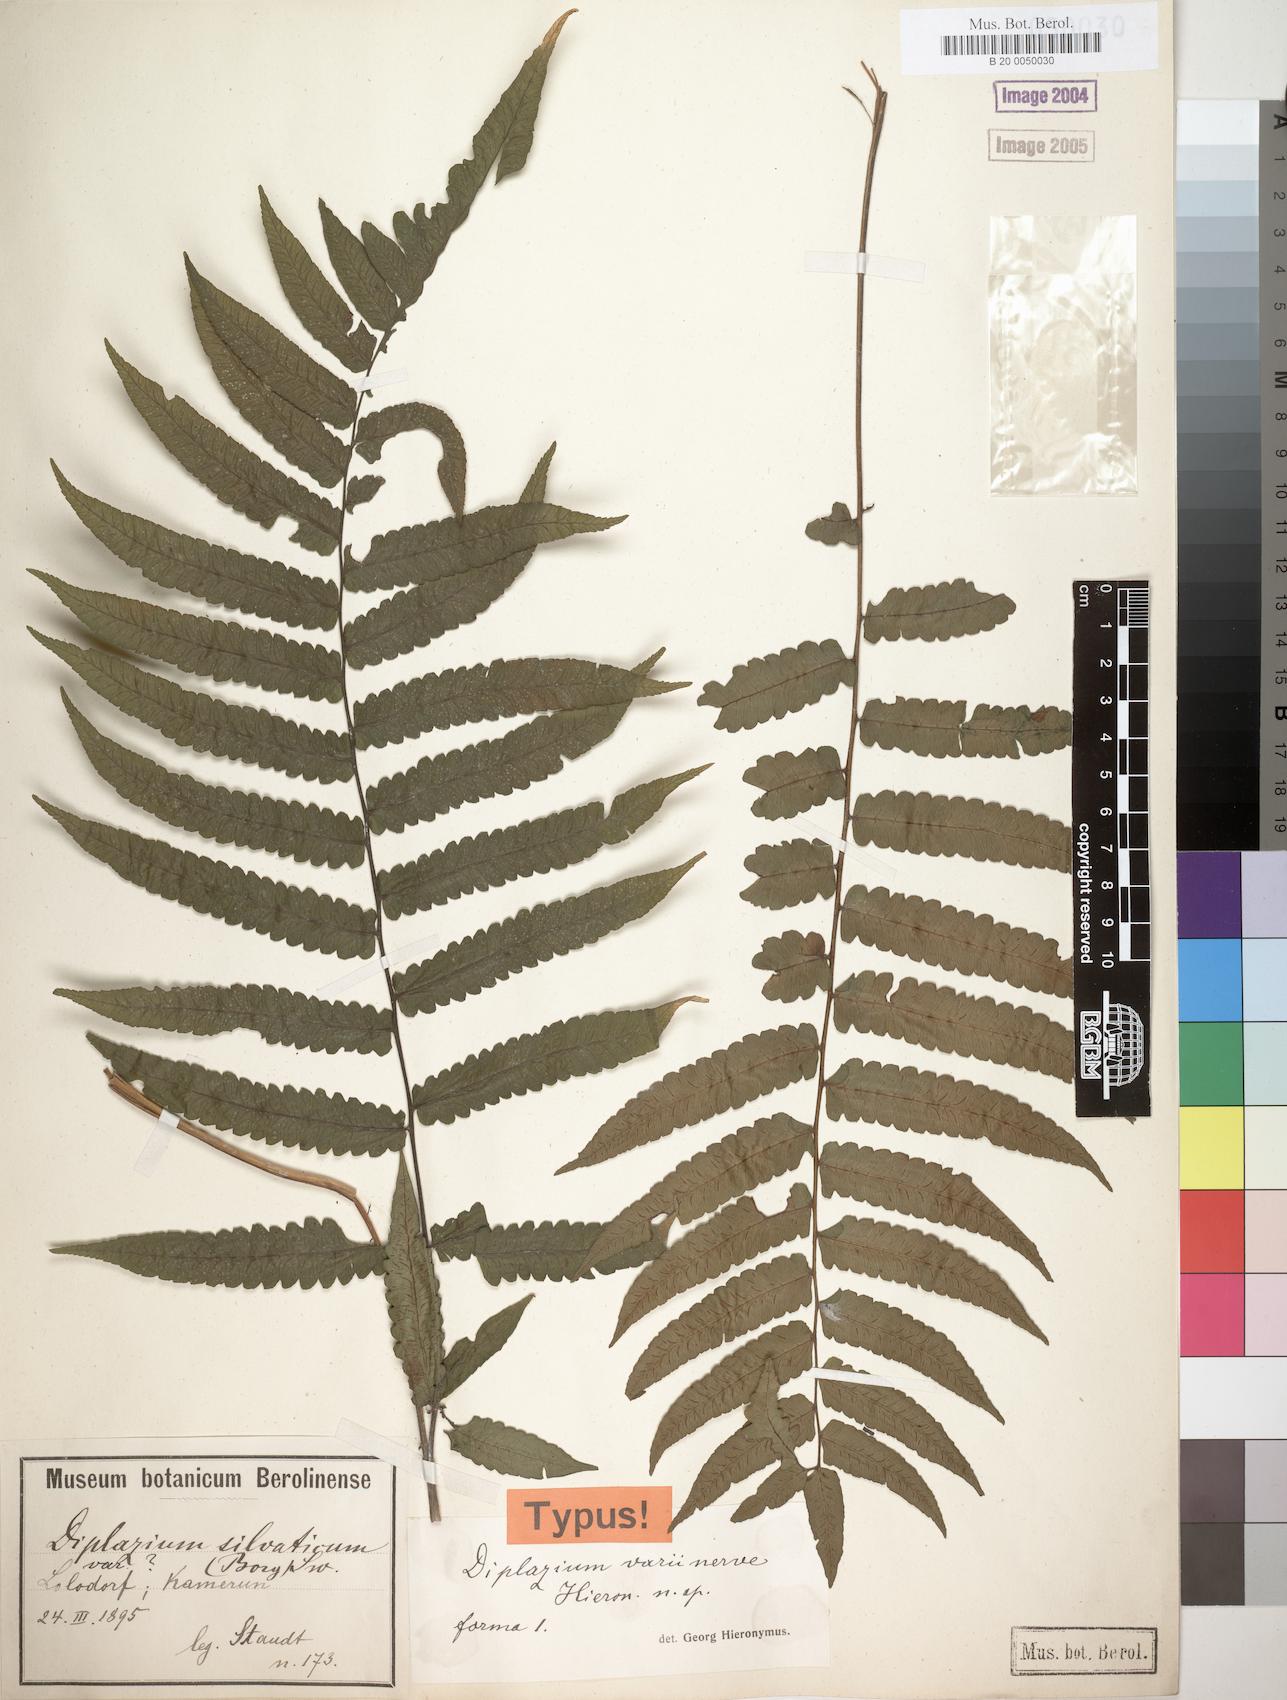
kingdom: Plantae
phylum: Tracheophyta
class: Polypodiopsida
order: Polypodiales
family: Athyriaceae
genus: Diplazium
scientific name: Diplazium welwitschii
